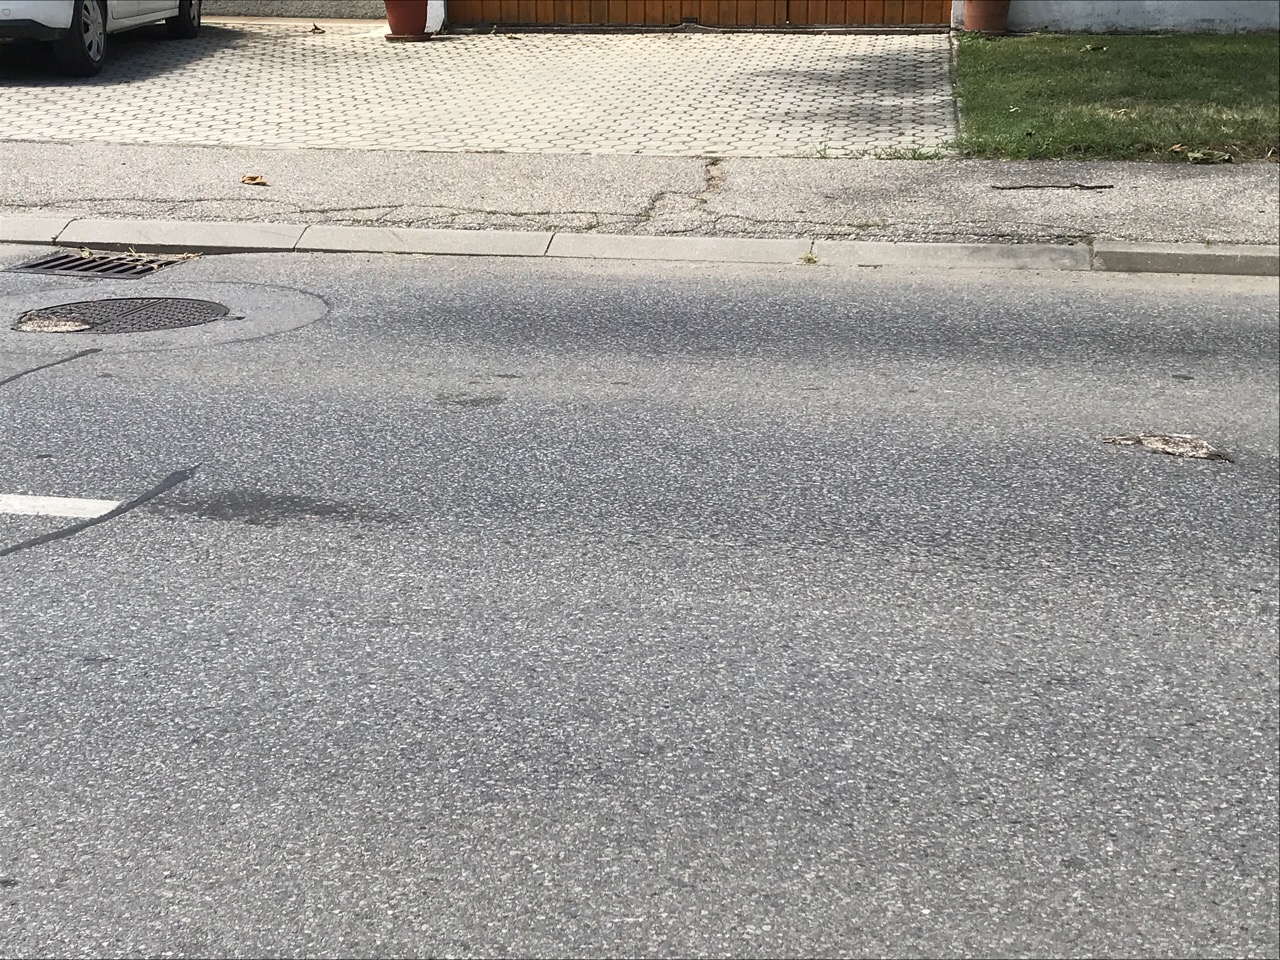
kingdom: Animalia
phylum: Chordata
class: Mammalia
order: Erinaceomorpha
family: Erinaceidae
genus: Erinaceus
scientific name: Erinaceus
